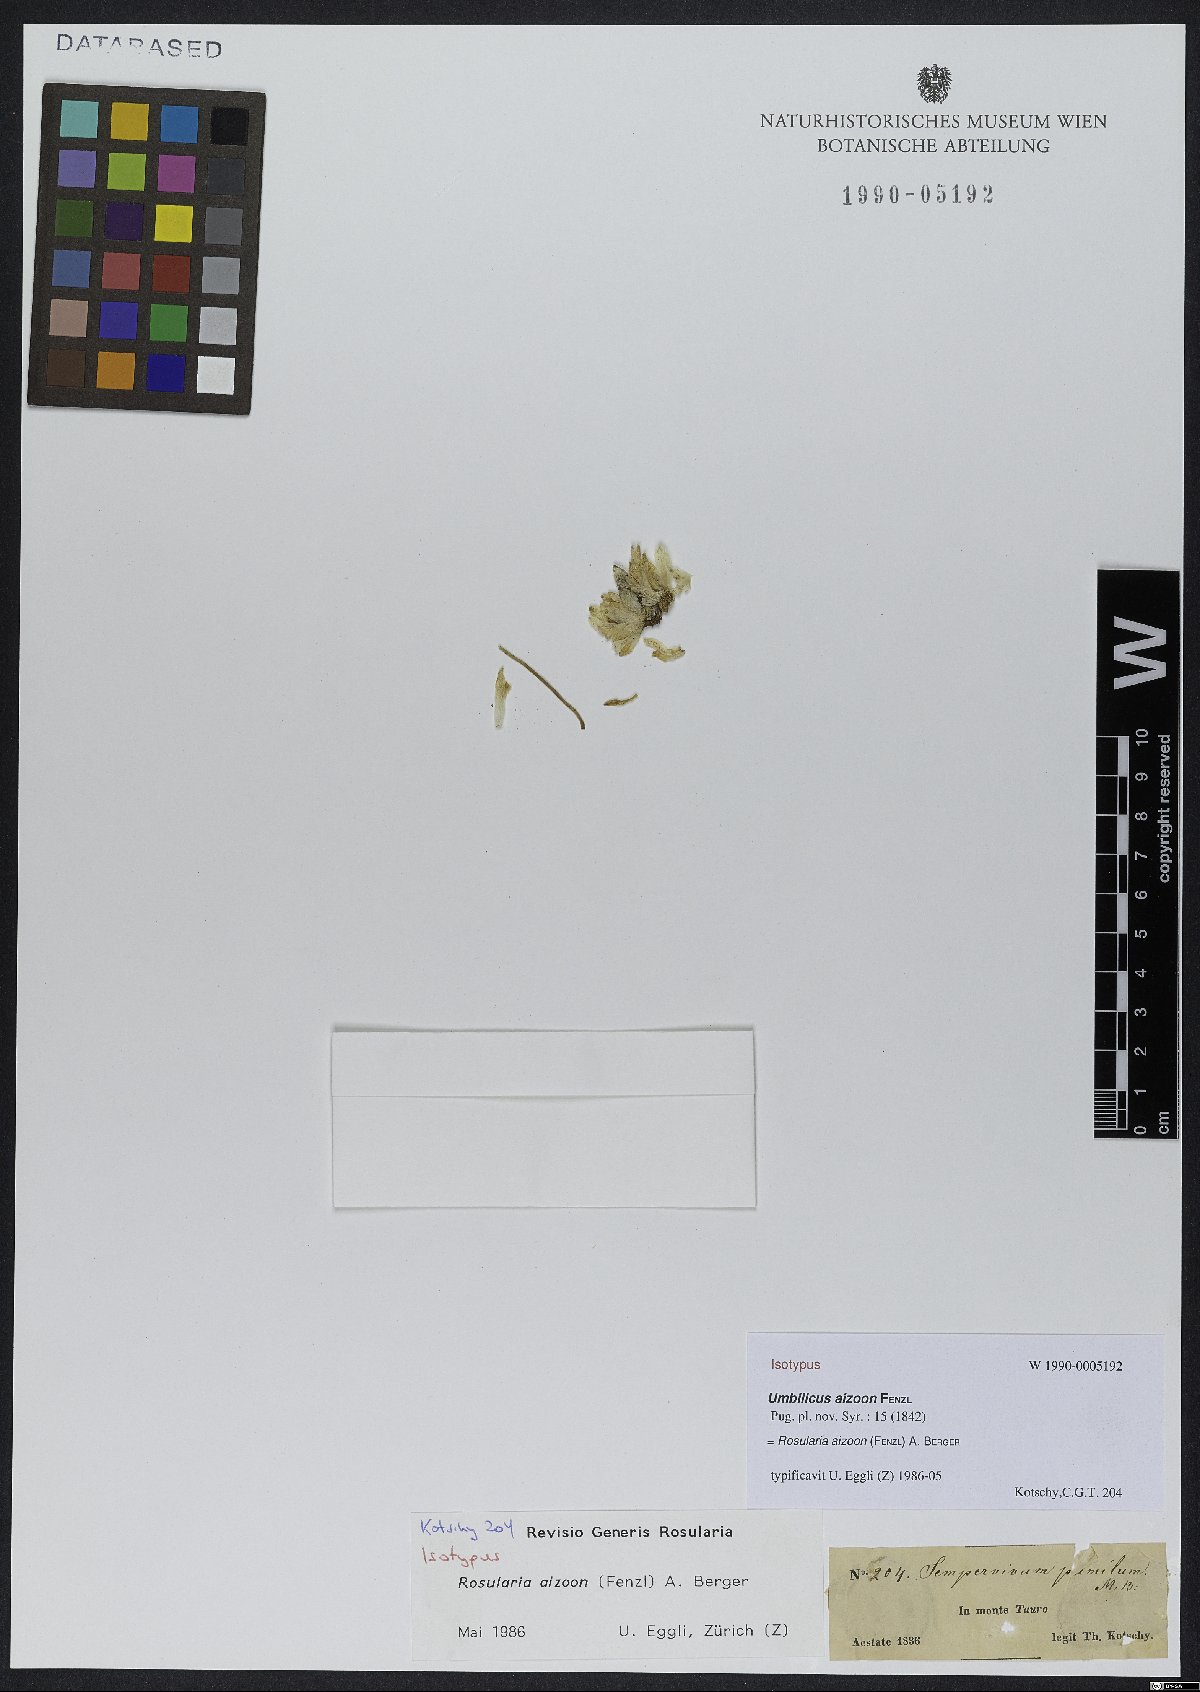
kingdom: Plantae
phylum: Tracheophyta
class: Magnoliopsida
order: Saxifragales
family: Crassulaceae
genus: Prometheum
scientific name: Prometheum aizoon
